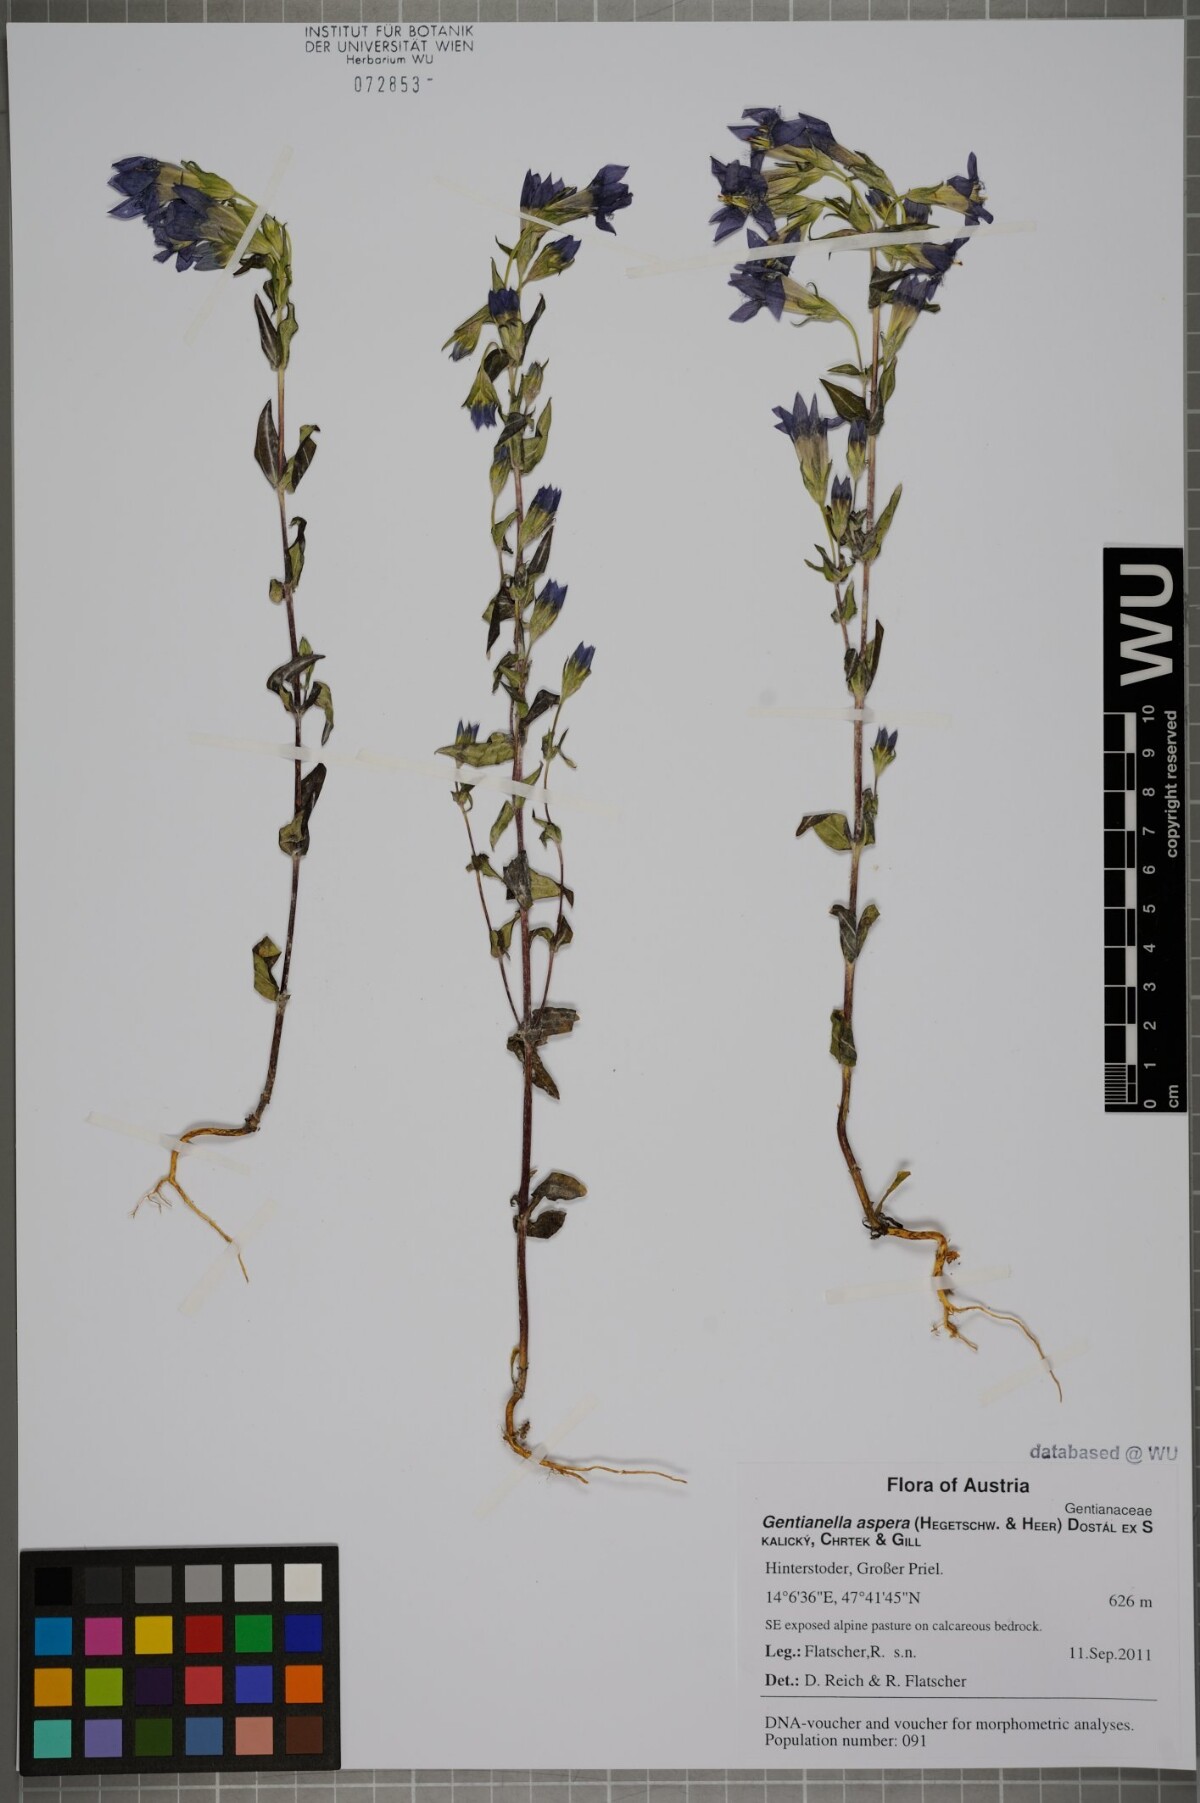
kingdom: Plantae
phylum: Tracheophyta
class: Magnoliopsida
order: Gentianales
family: Gentianaceae
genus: Gentianella
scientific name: Gentianella obtusifolia
